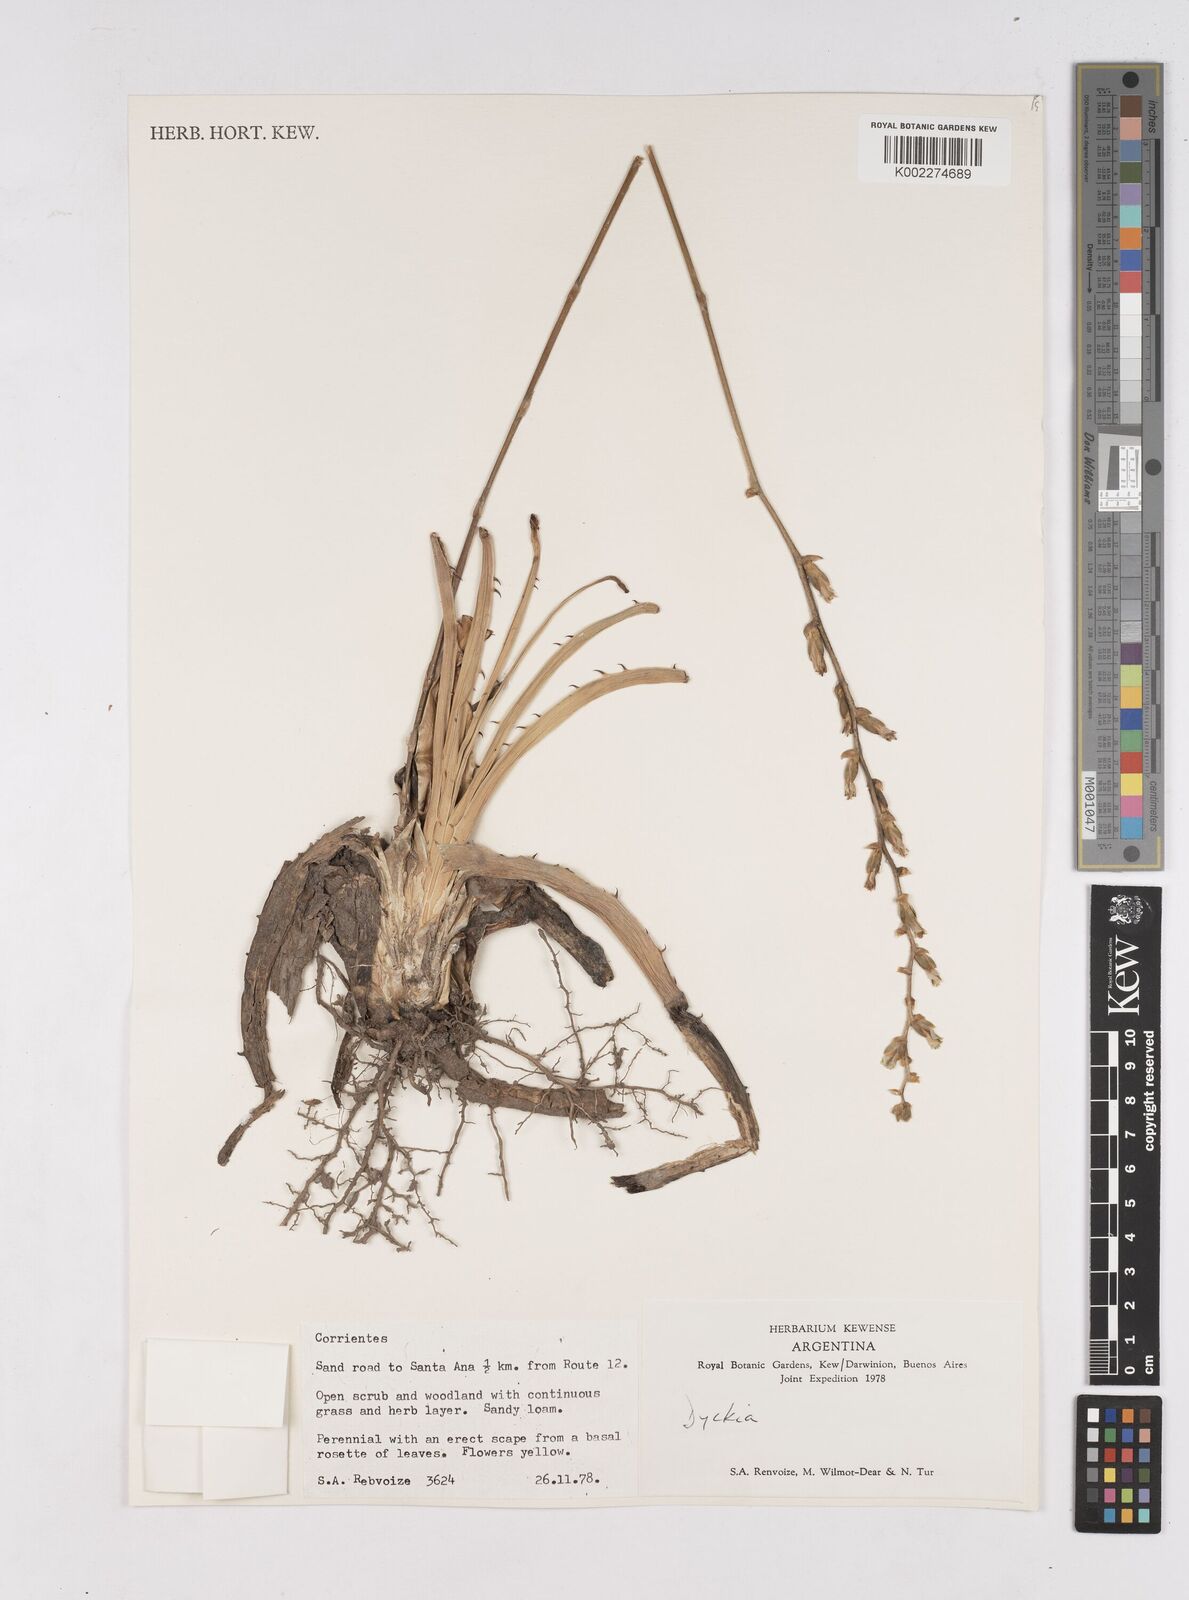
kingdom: Plantae
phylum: Tracheophyta
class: Liliopsida
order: Poales
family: Bromeliaceae
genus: Dyckia
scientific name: Dyckia
